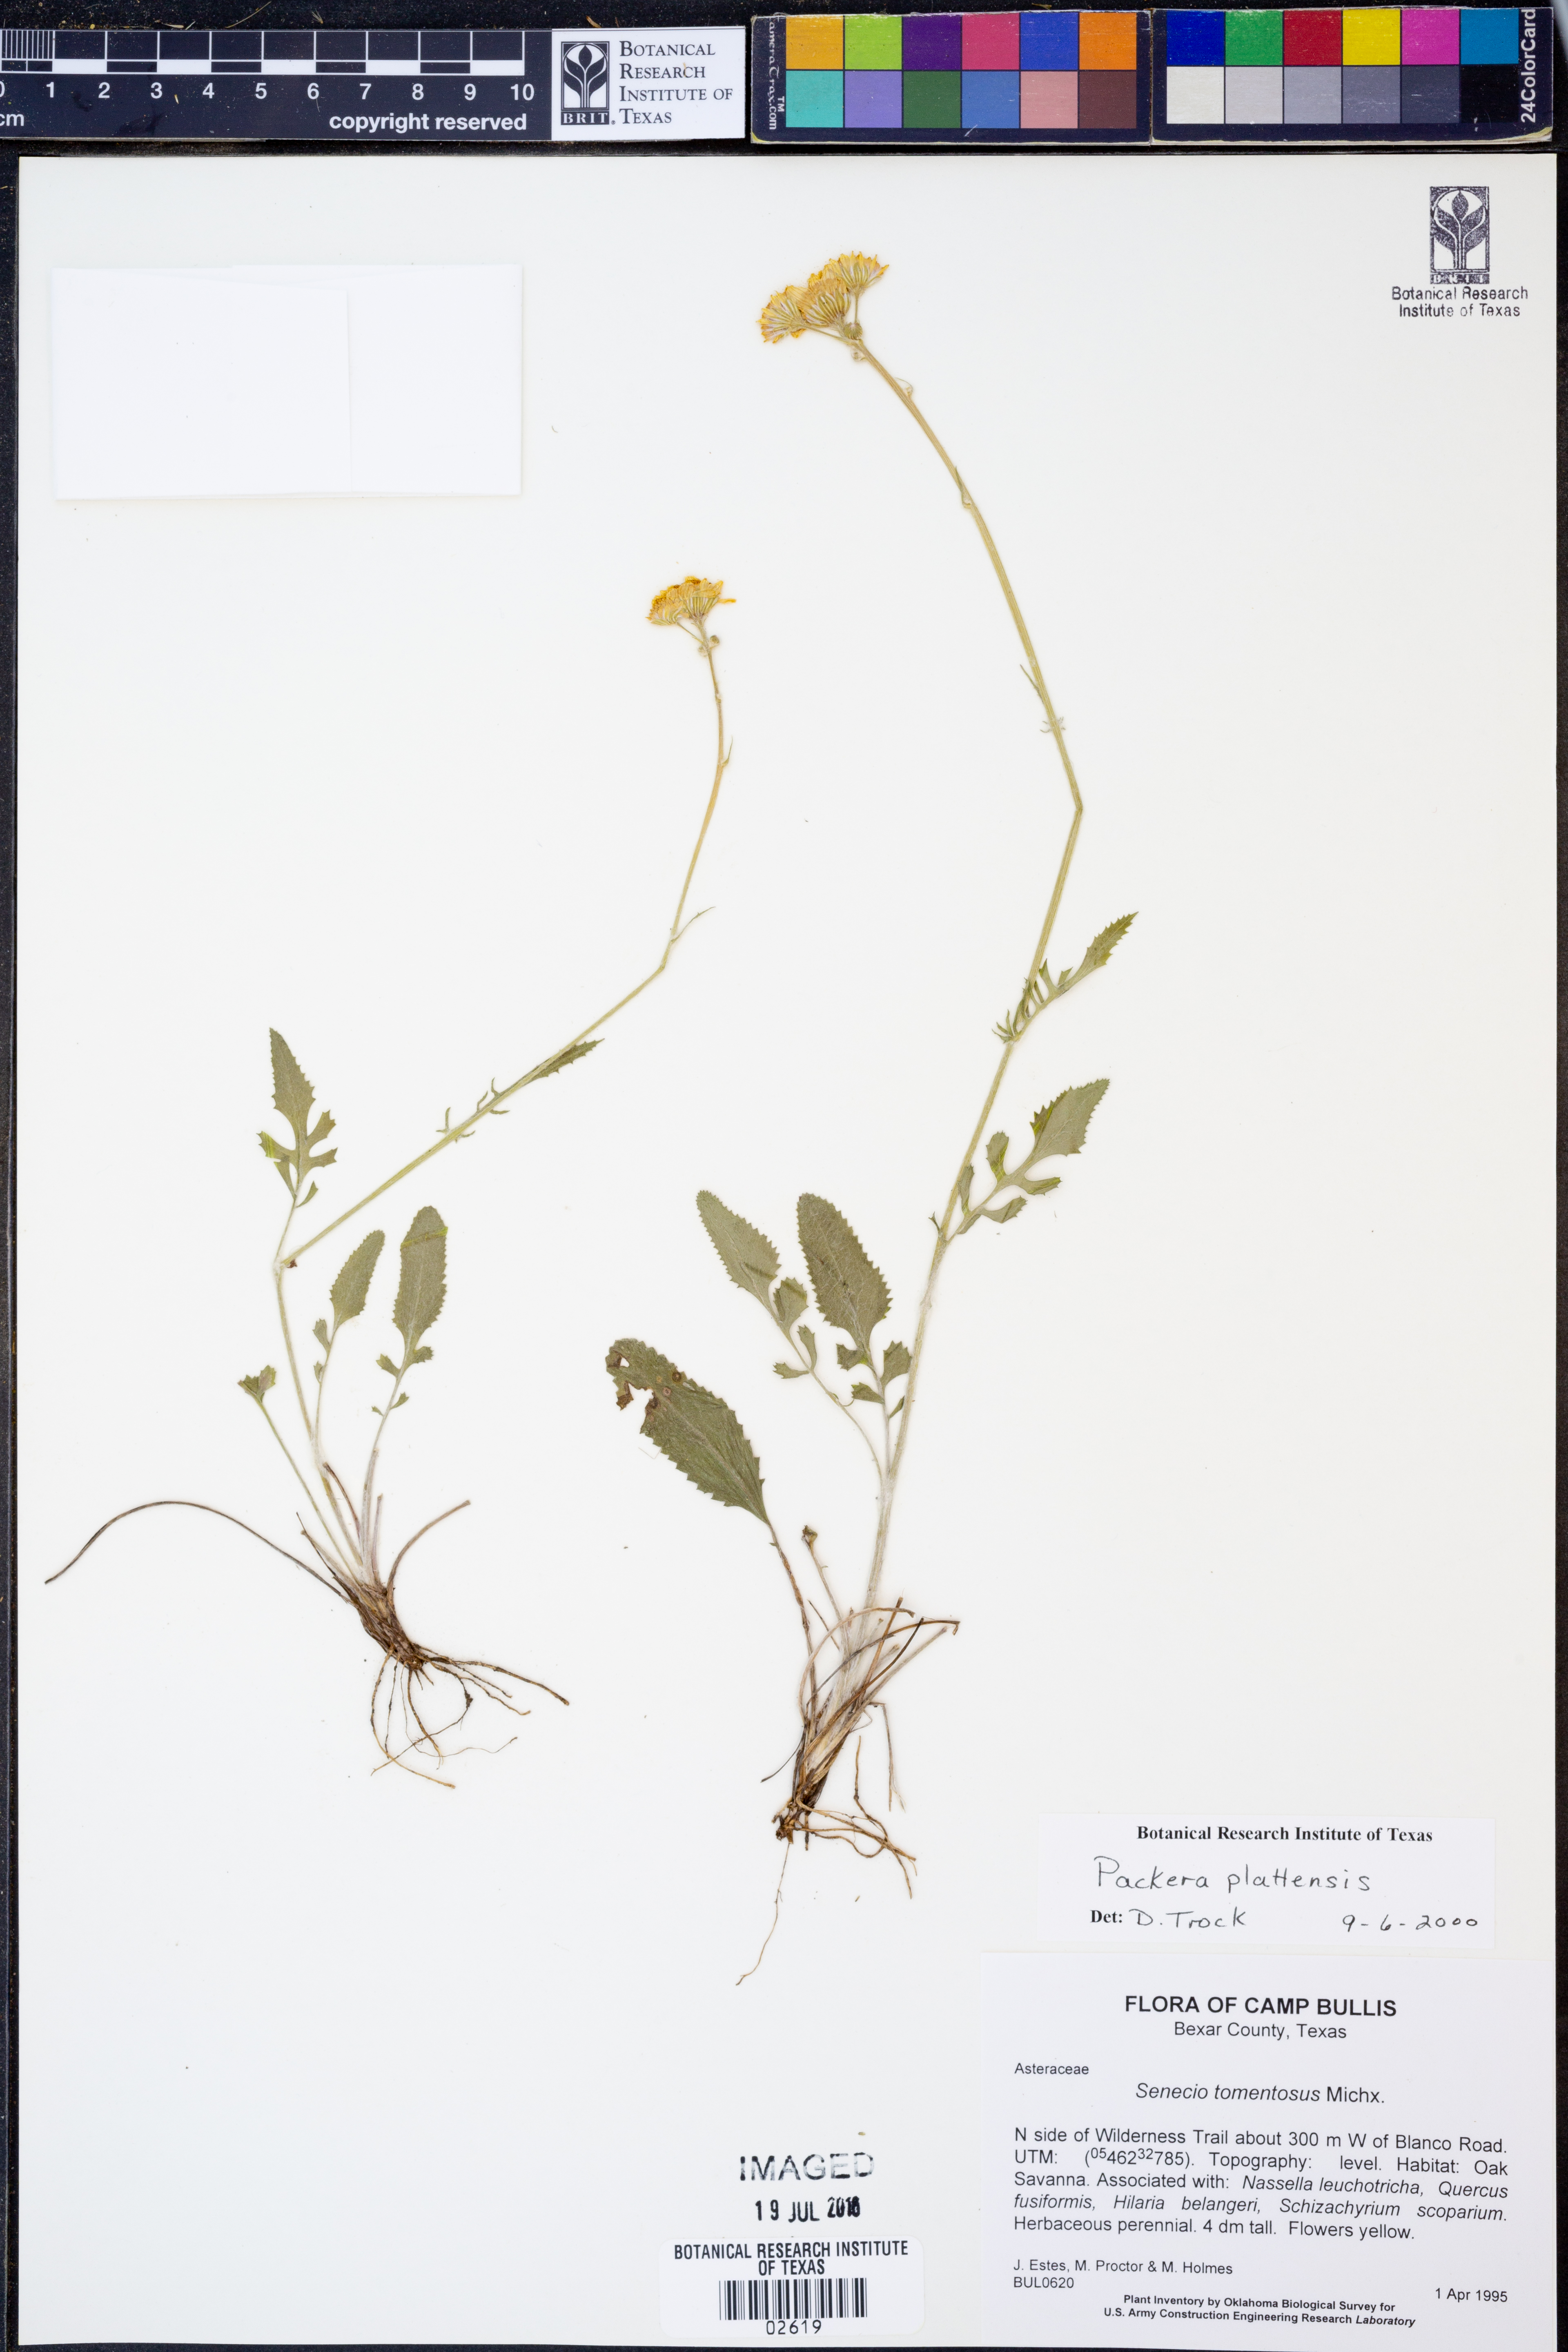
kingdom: Plantae
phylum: Tracheophyta
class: Magnoliopsida
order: Asterales
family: Asteraceae
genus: Packera
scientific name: Packera plattensis
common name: Prairie groundsel
